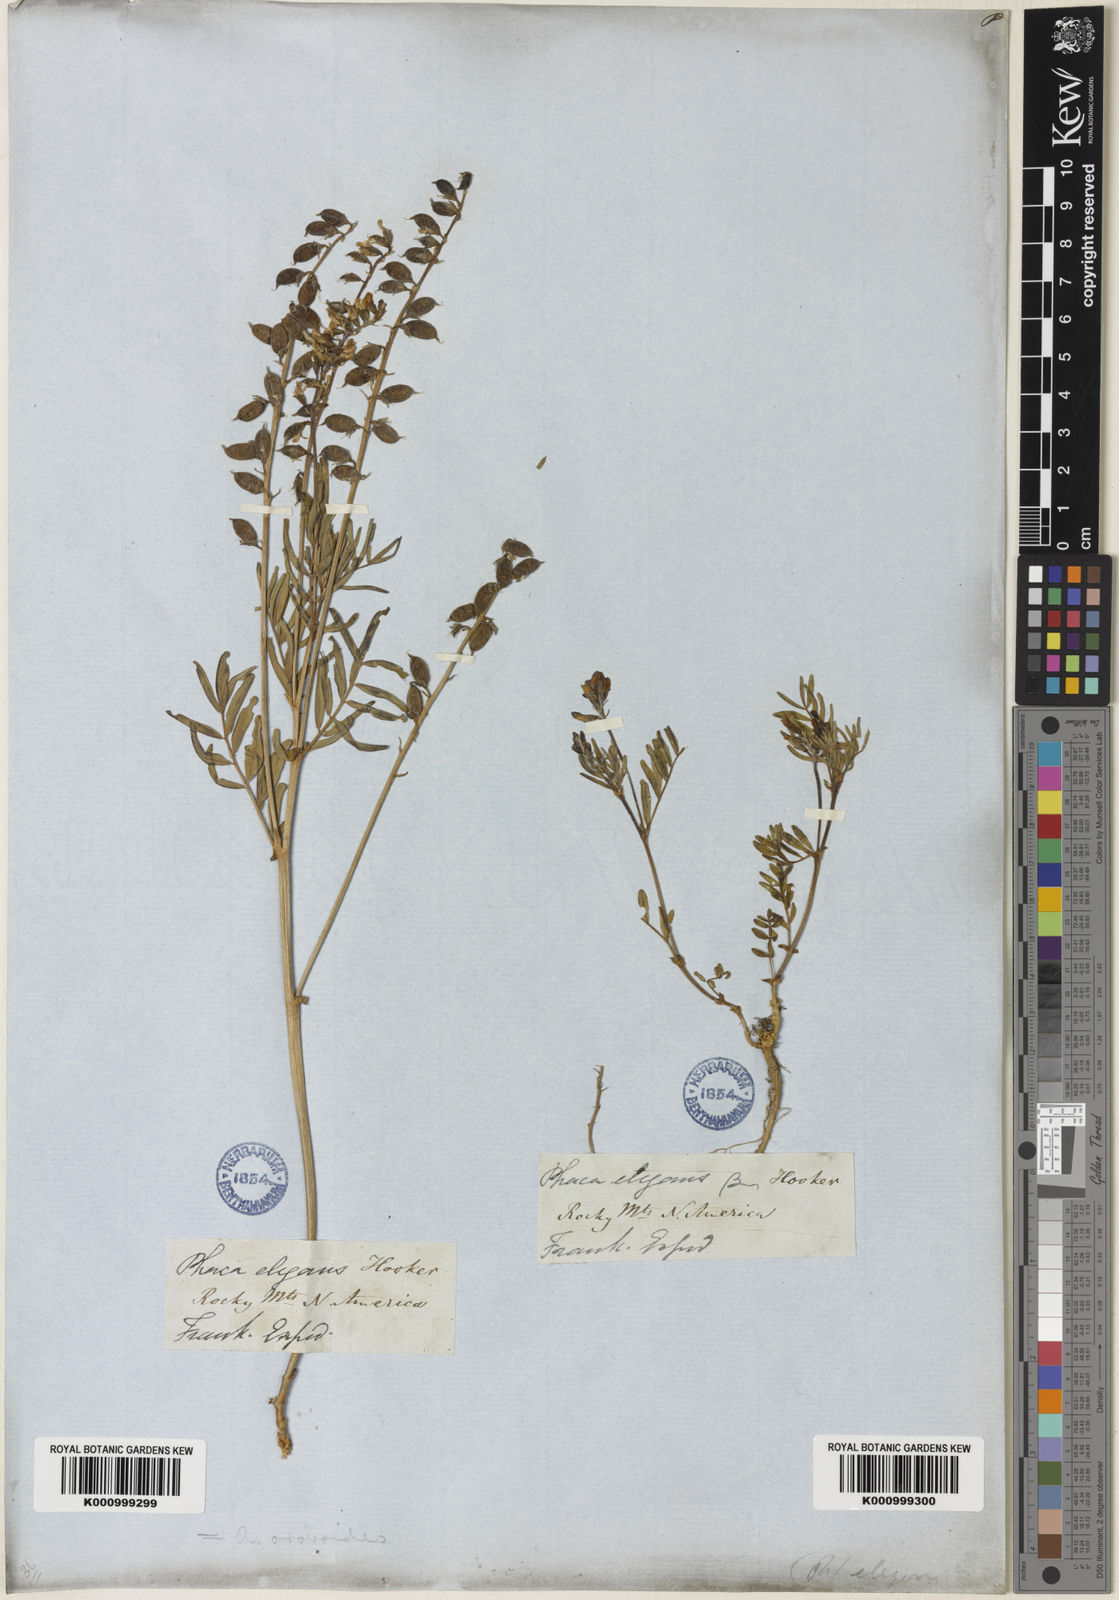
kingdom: Plantae
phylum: Tracheophyta
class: Magnoliopsida
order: Fabales
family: Fabaceae
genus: Astragalus
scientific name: Astragalus norvegicus
